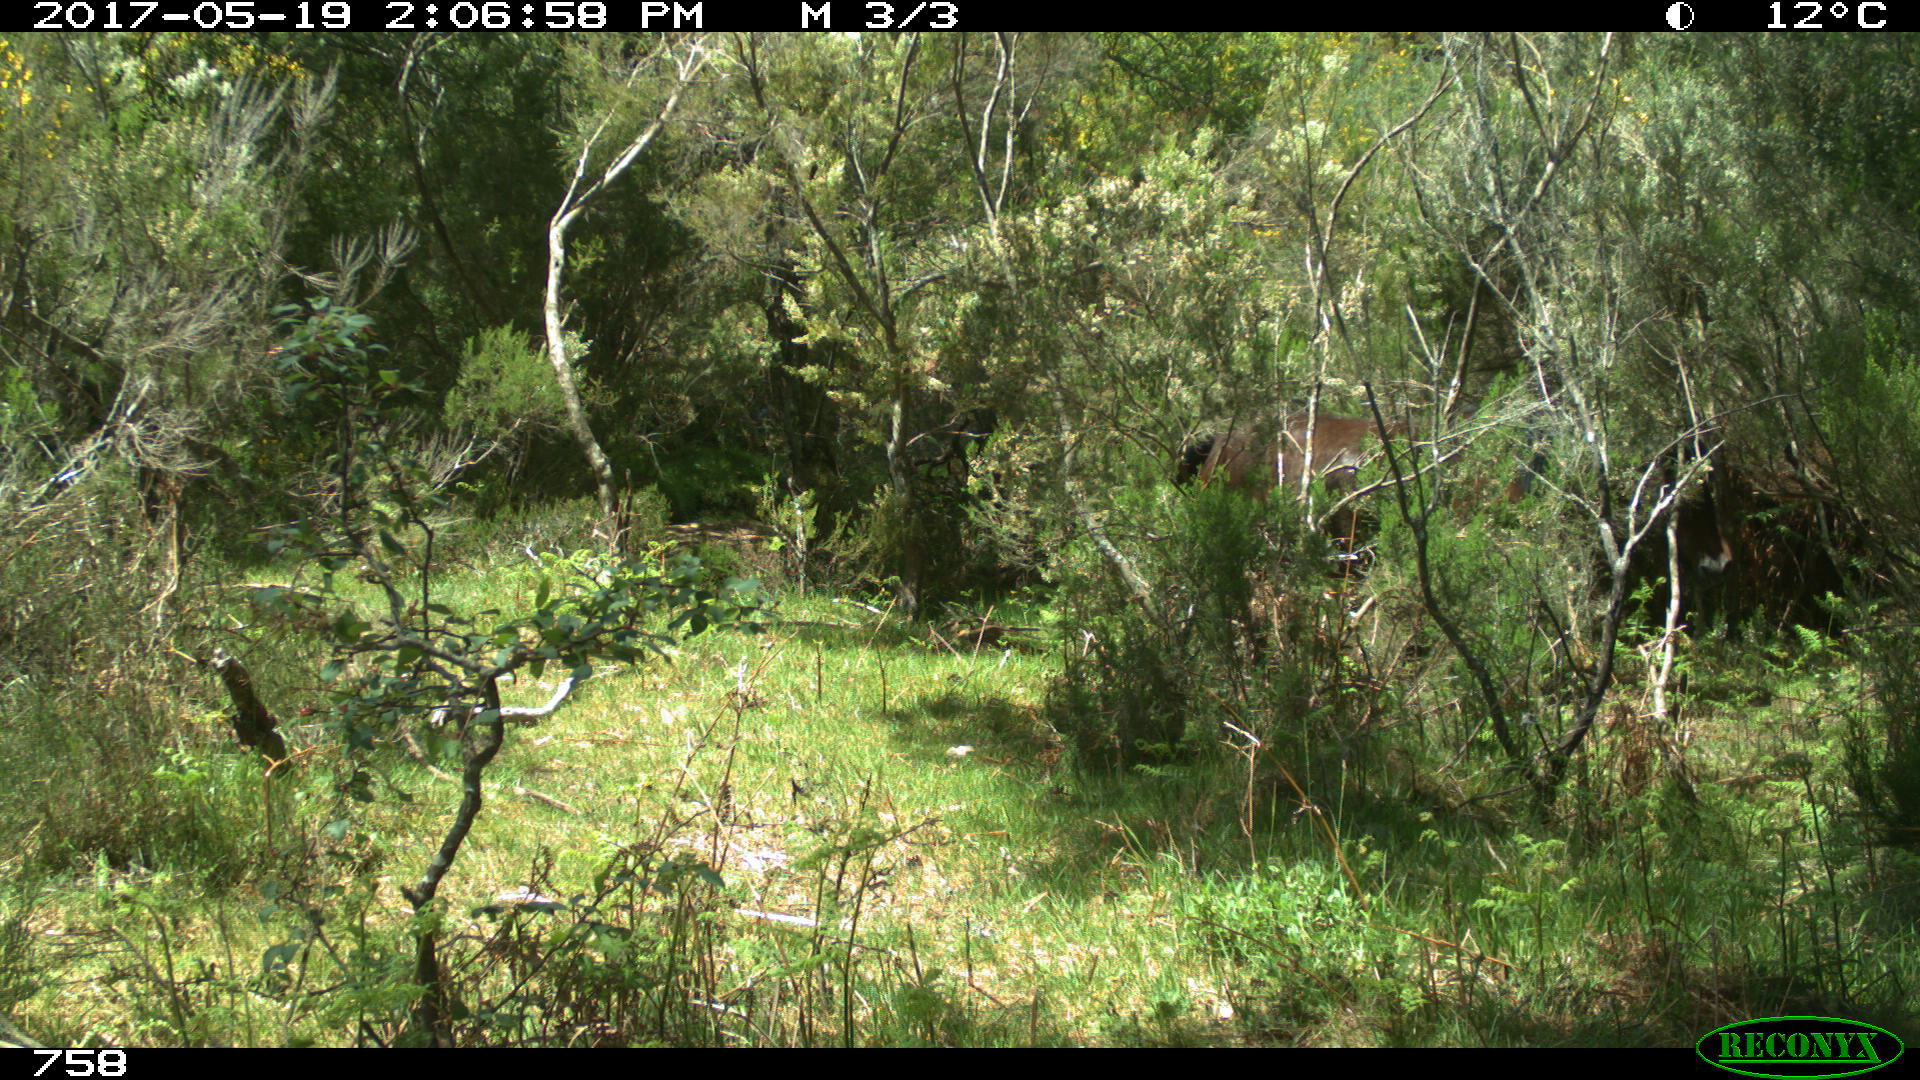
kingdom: Animalia
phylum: Chordata
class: Mammalia
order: Perissodactyla
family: Equidae
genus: Equus
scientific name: Equus caballus
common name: Horse
